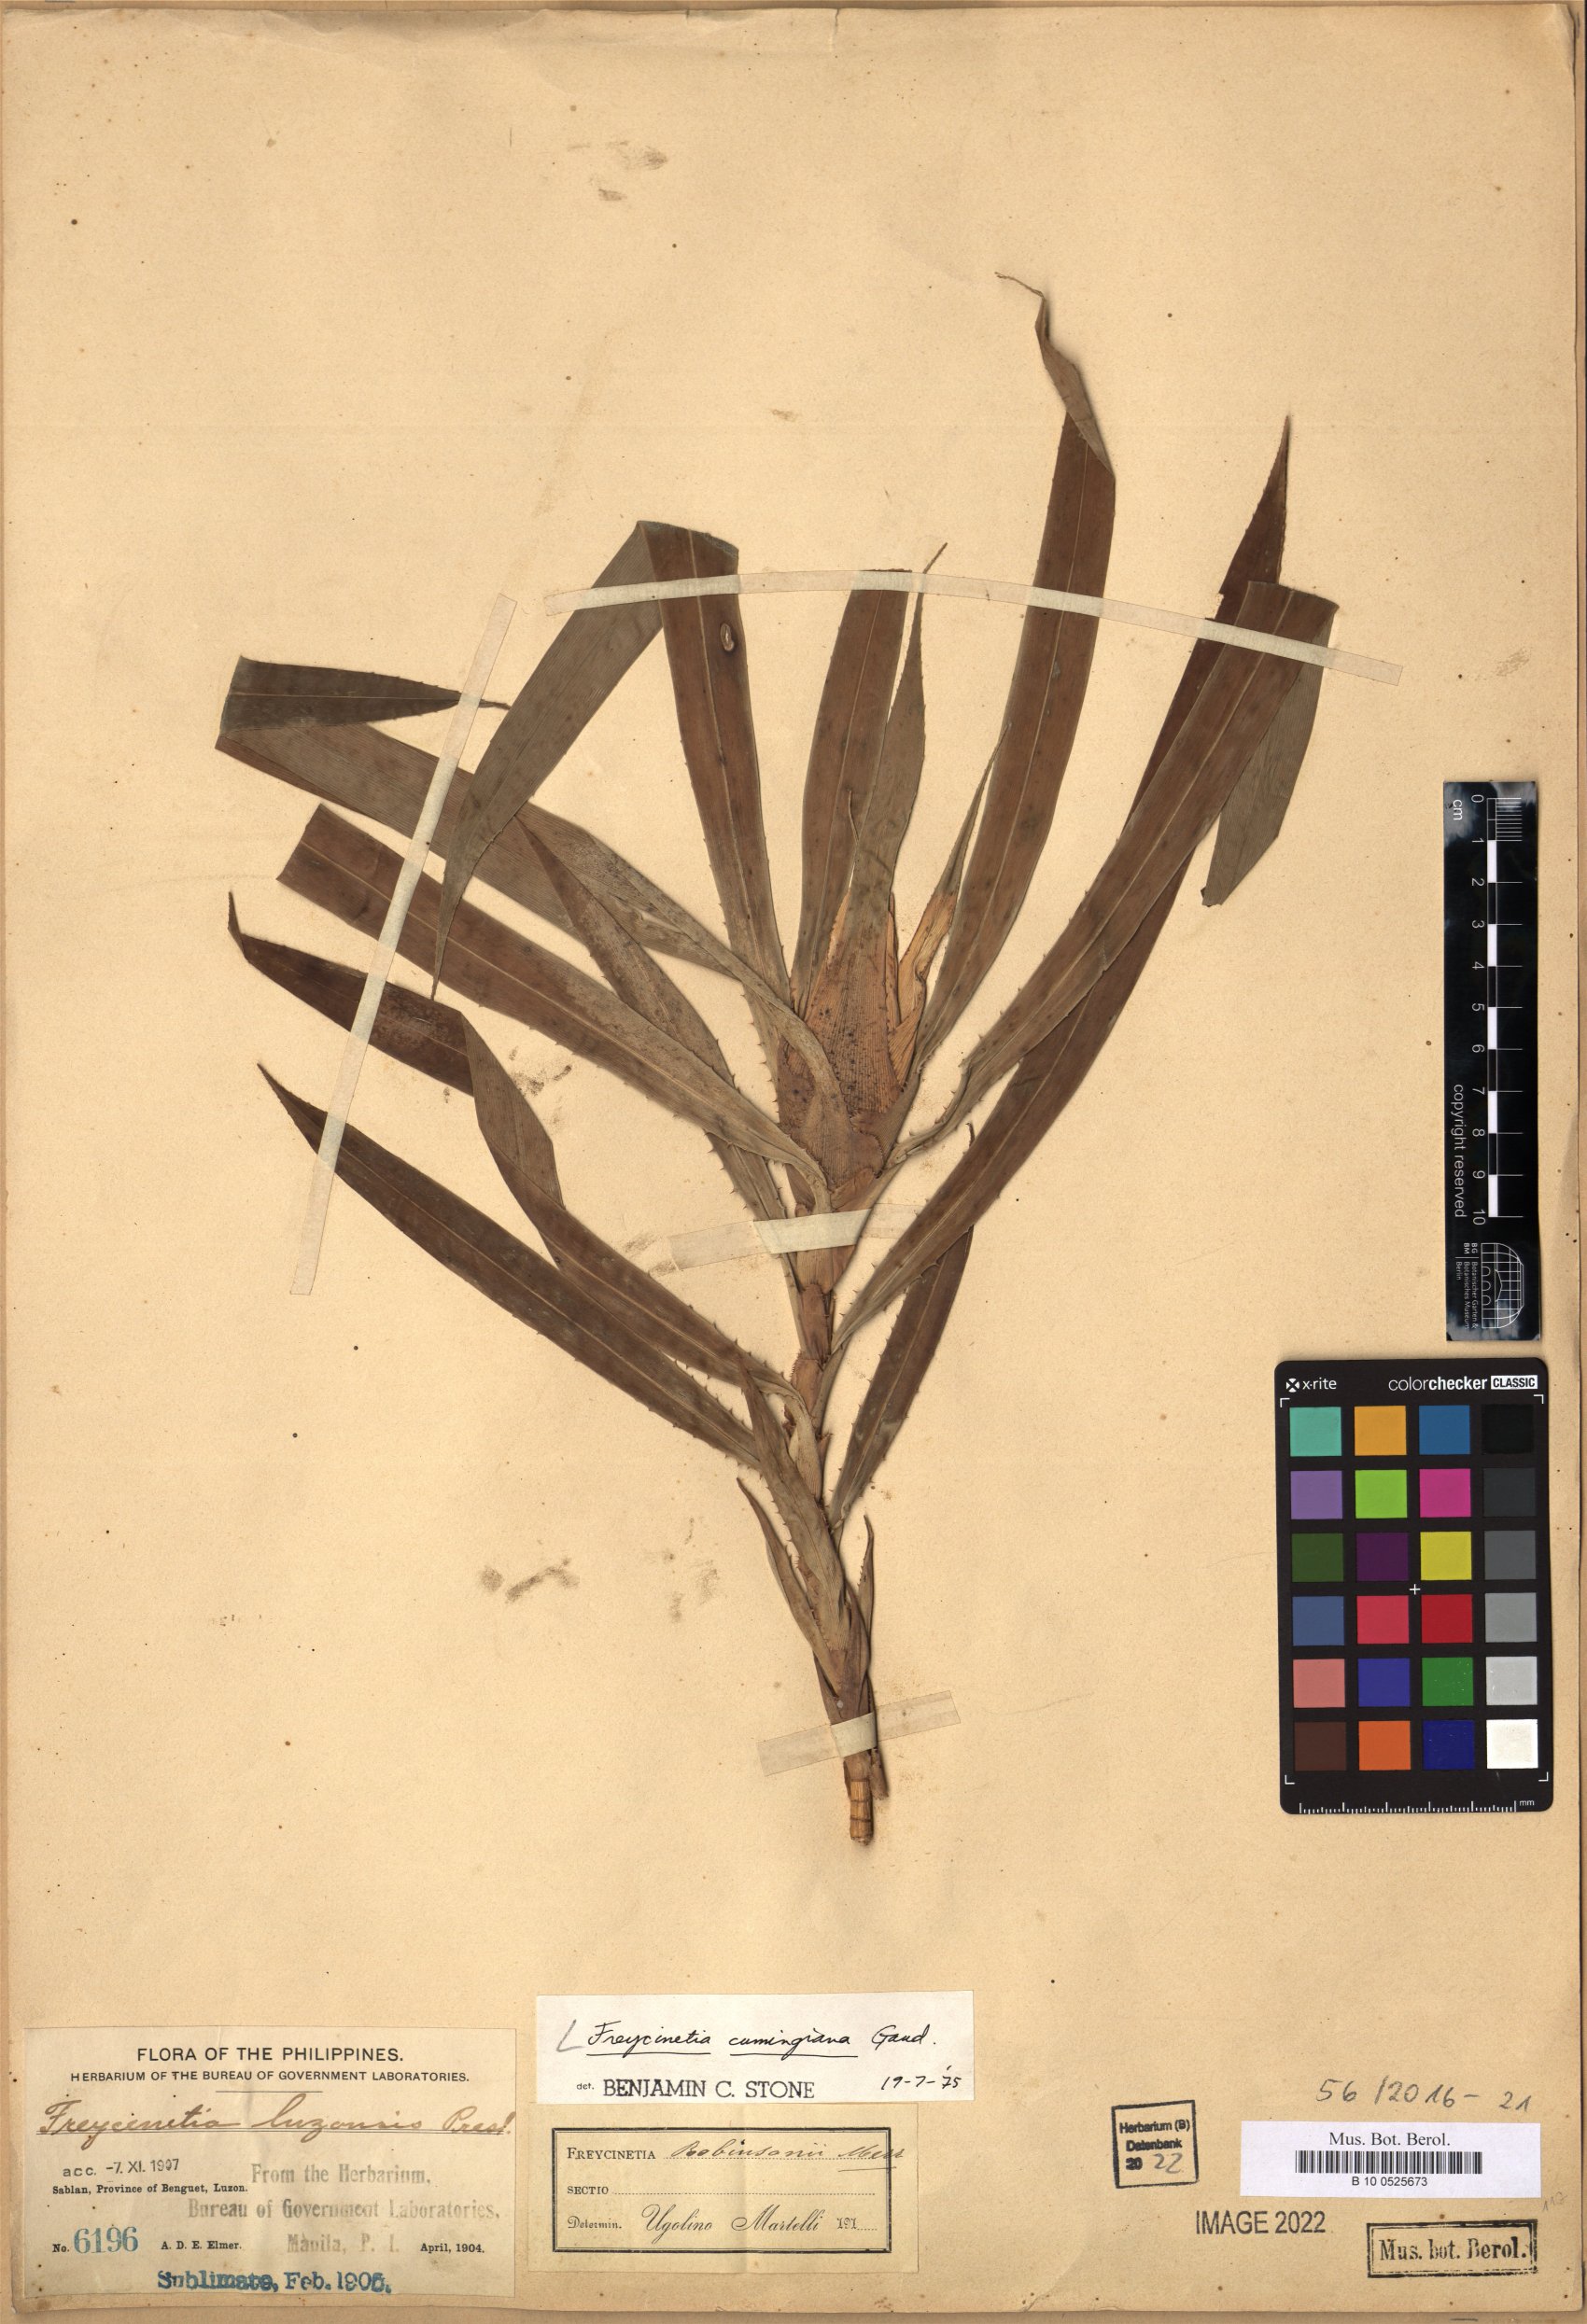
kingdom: Plantae
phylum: Tracheophyta
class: Liliopsida
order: Pandanales
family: Pandanaceae
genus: Freycinetia
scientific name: Freycinetia cumingiana
